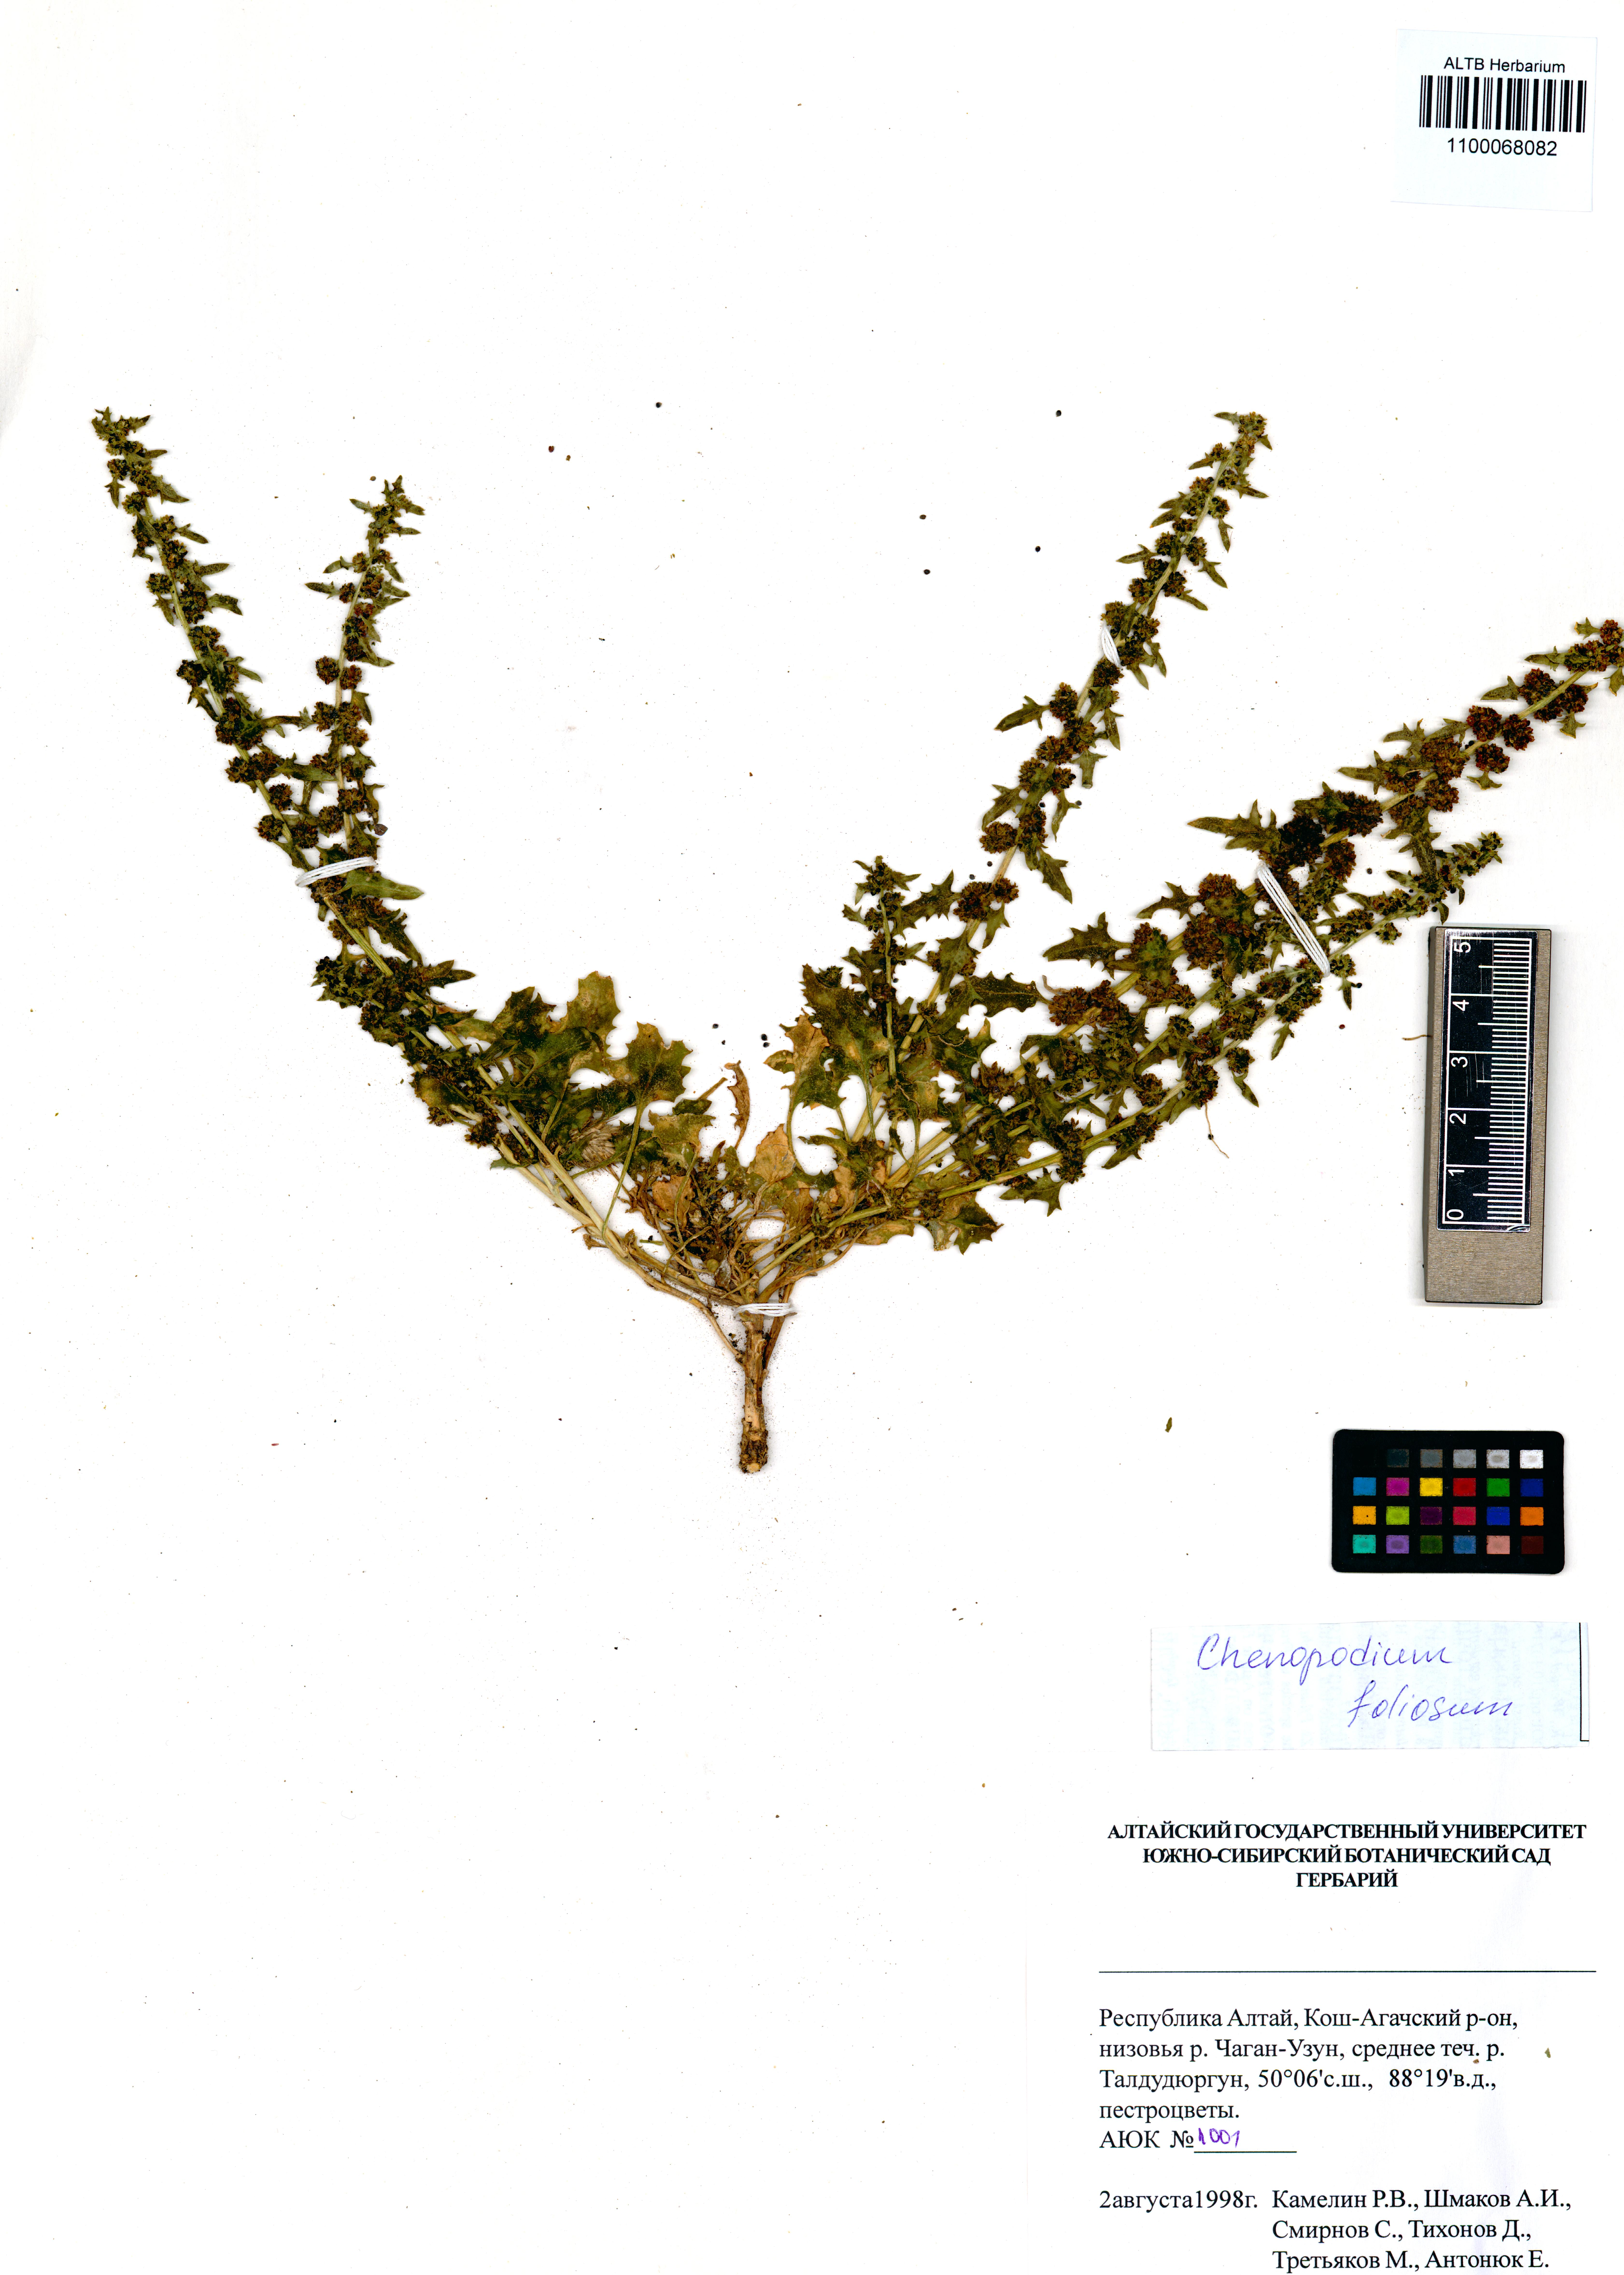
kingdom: Plantae
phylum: Tracheophyta
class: Magnoliopsida
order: Caryophyllales
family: Amaranthaceae
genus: Blitum
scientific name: Blitum virgatum
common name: Strawberry goosefoot
